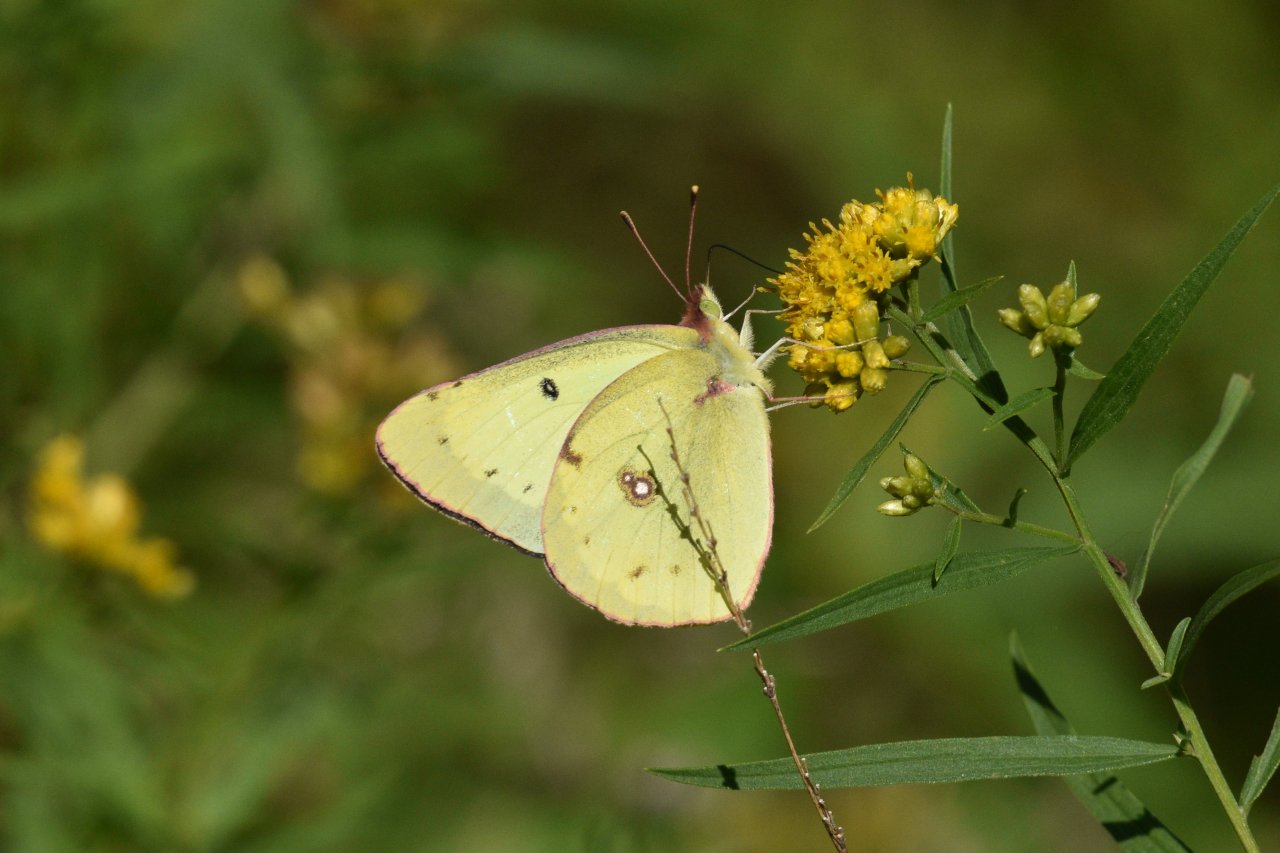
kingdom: Animalia
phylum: Arthropoda
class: Insecta
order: Lepidoptera
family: Pieridae
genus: Colias
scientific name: Colias philodice
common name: Clouded Sulphur
